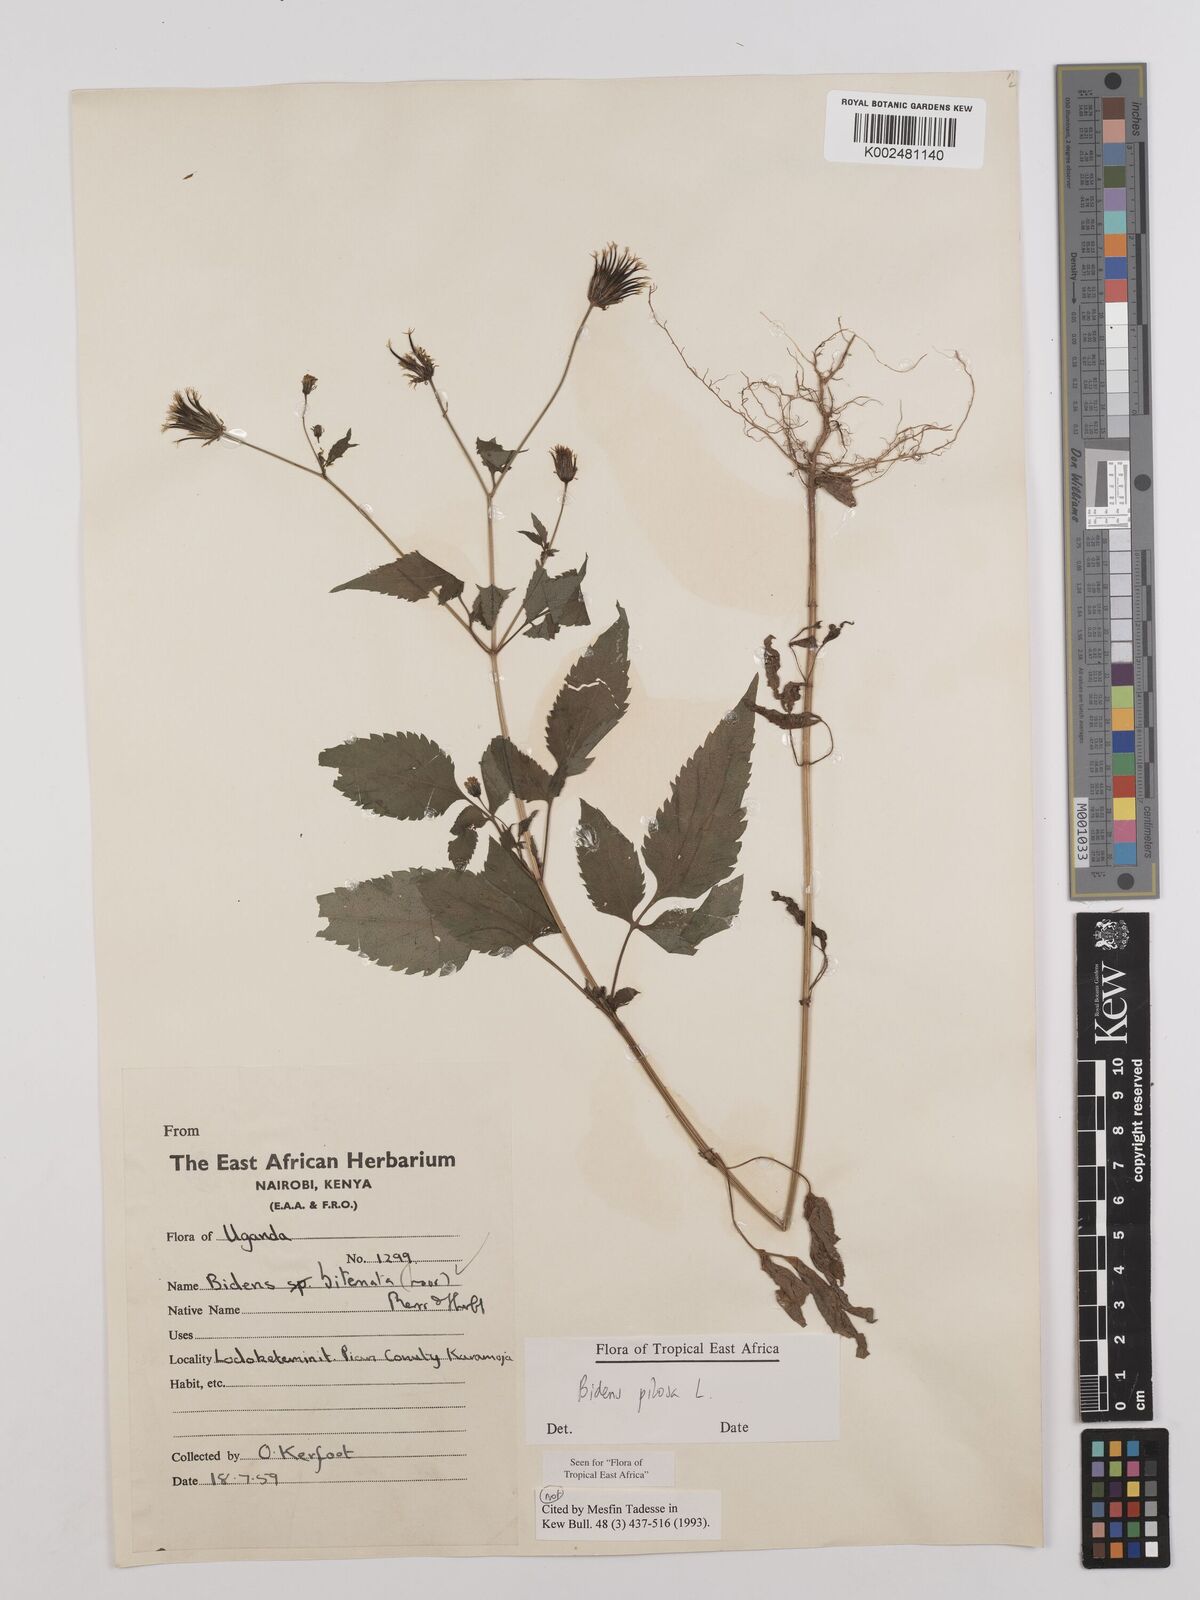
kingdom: Plantae
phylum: Tracheophyta
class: Magnoliopsida
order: Asterales
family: Asteraceae
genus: Bidens
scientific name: Bidens pilosa
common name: Black-jack
